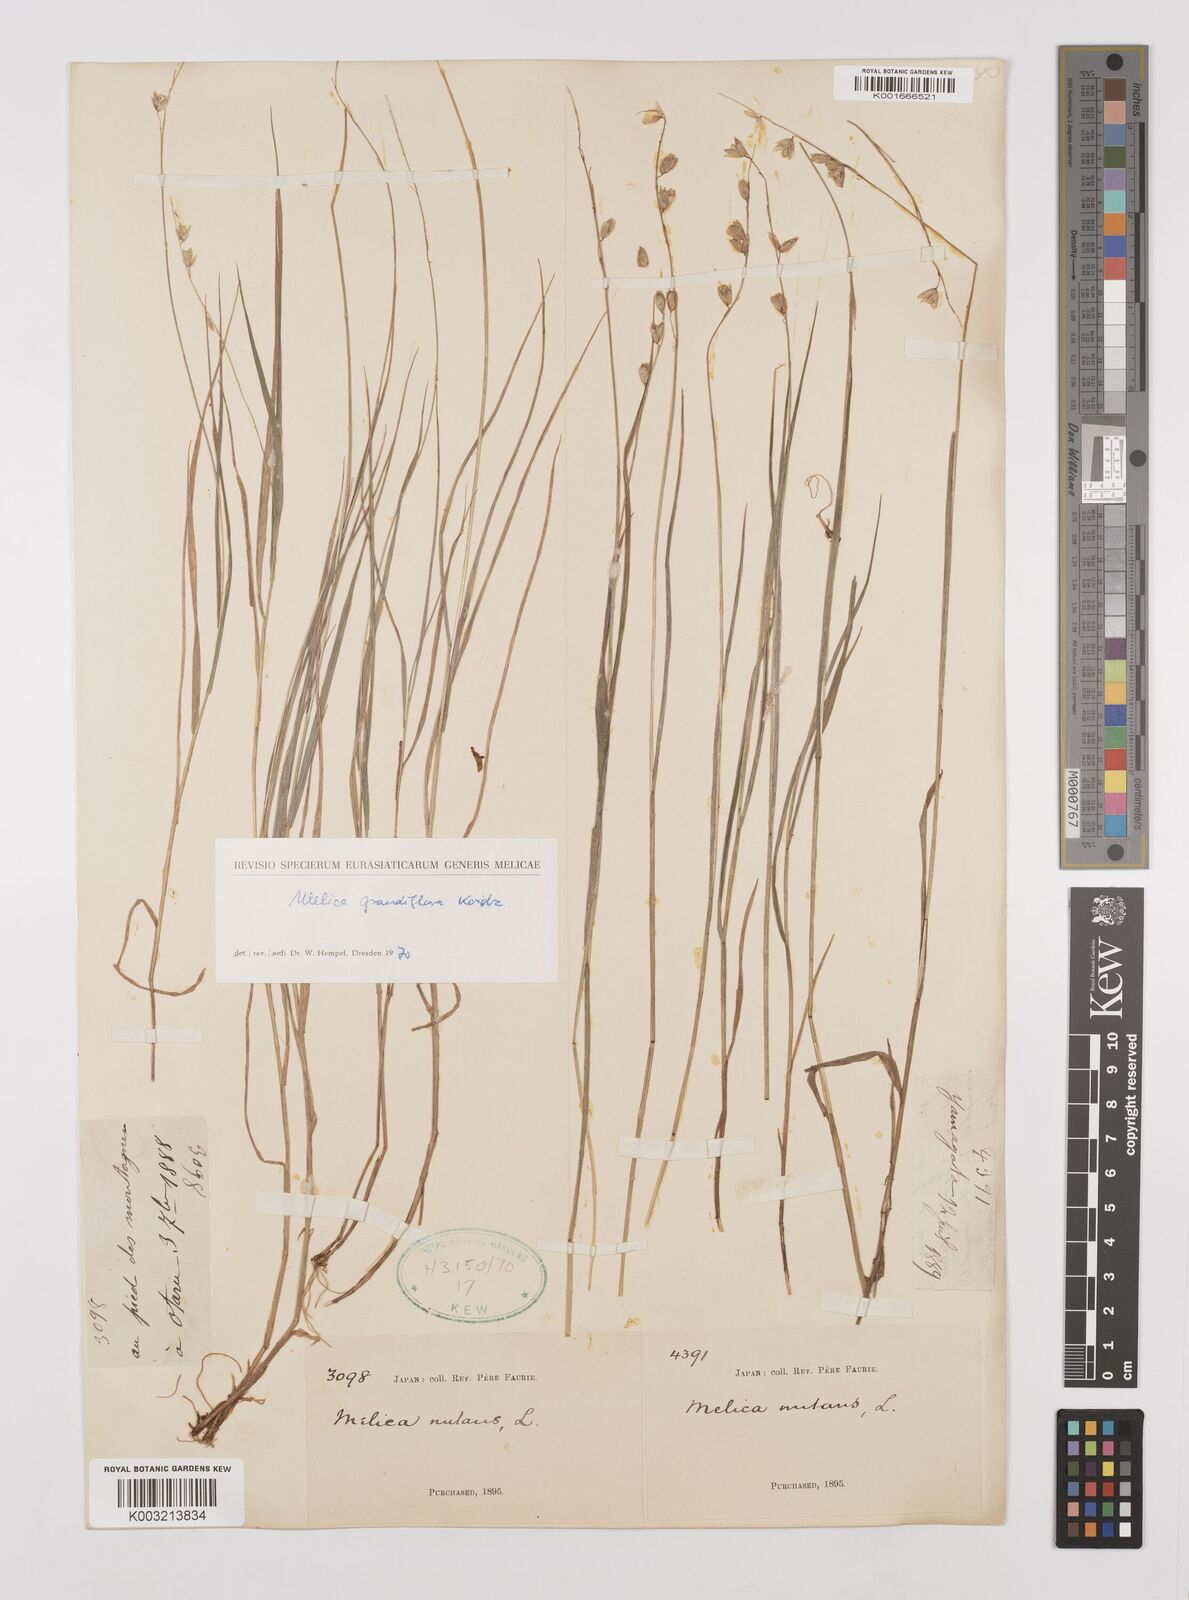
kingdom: Plantae
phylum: Tracheophyta
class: Liliopsida
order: Poales
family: Poaceae
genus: Melica
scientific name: Melica nutans
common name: Mountain melick
